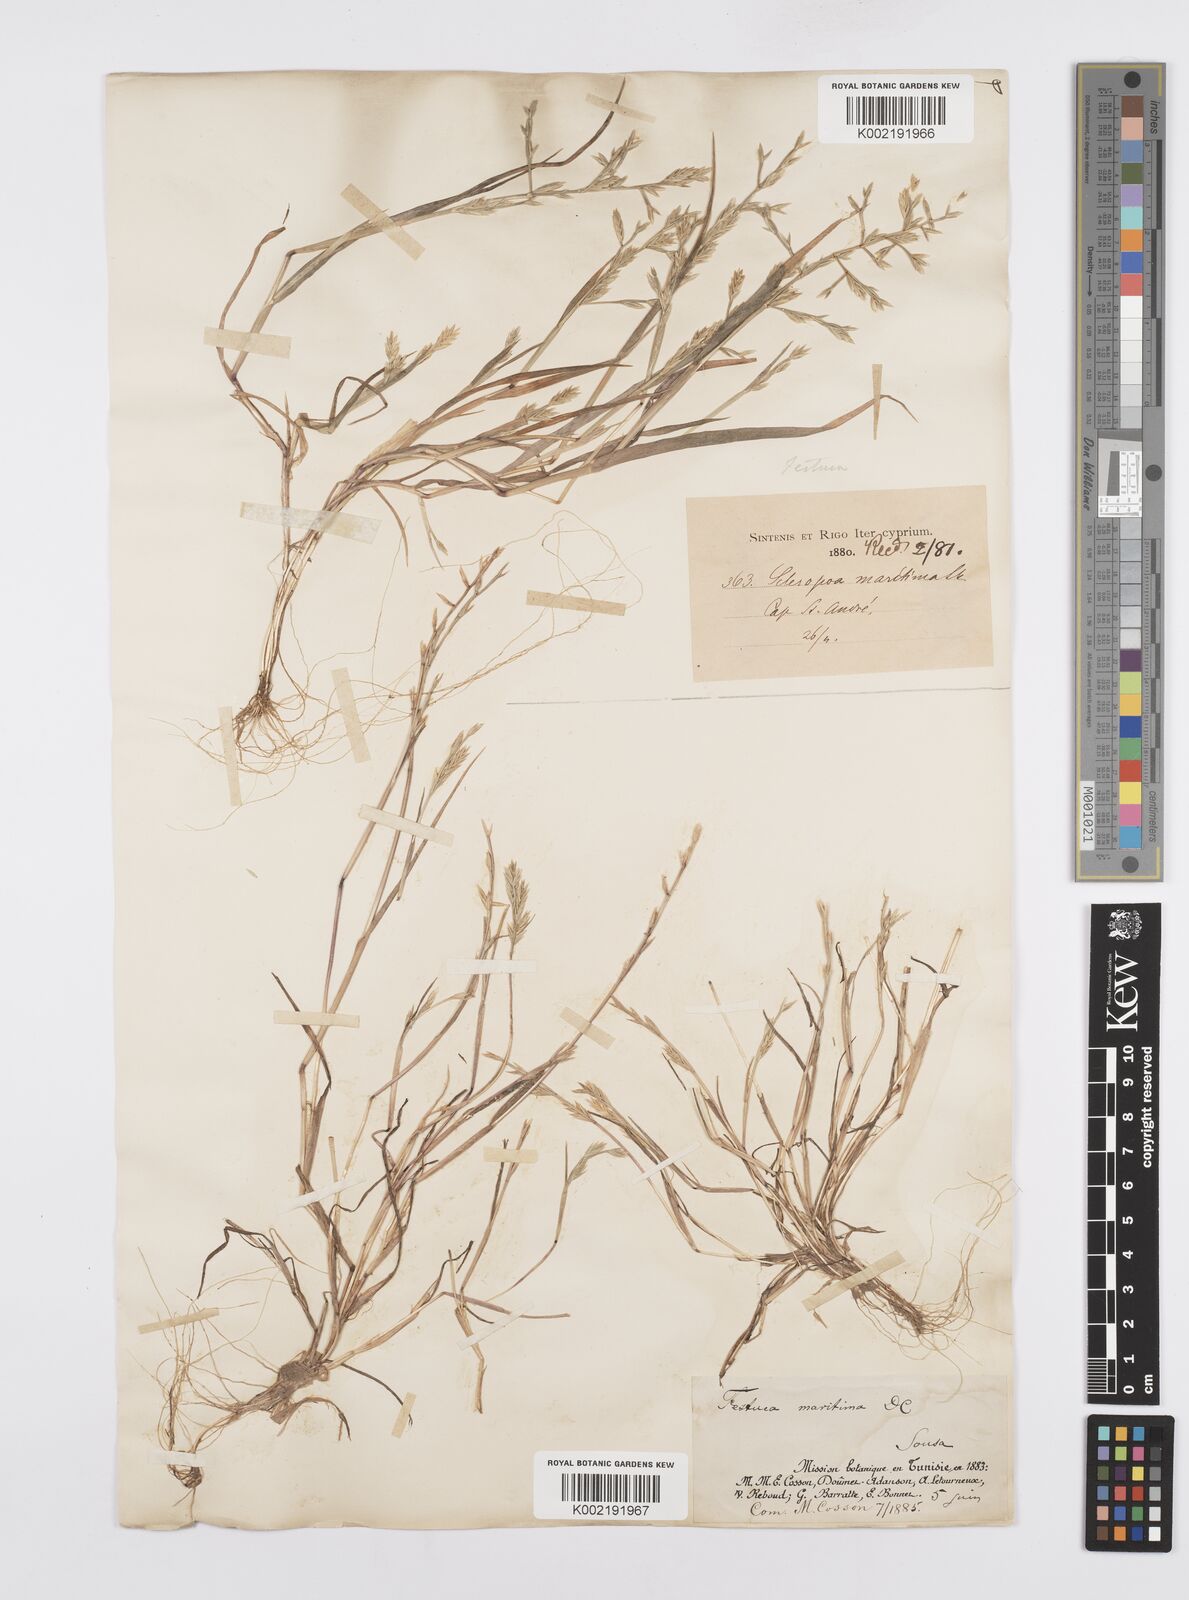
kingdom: Plantae
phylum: Tracheophyta
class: Liliopsida
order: Poales
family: Poaceae
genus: Cutandia
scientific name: Cutandia maritima
